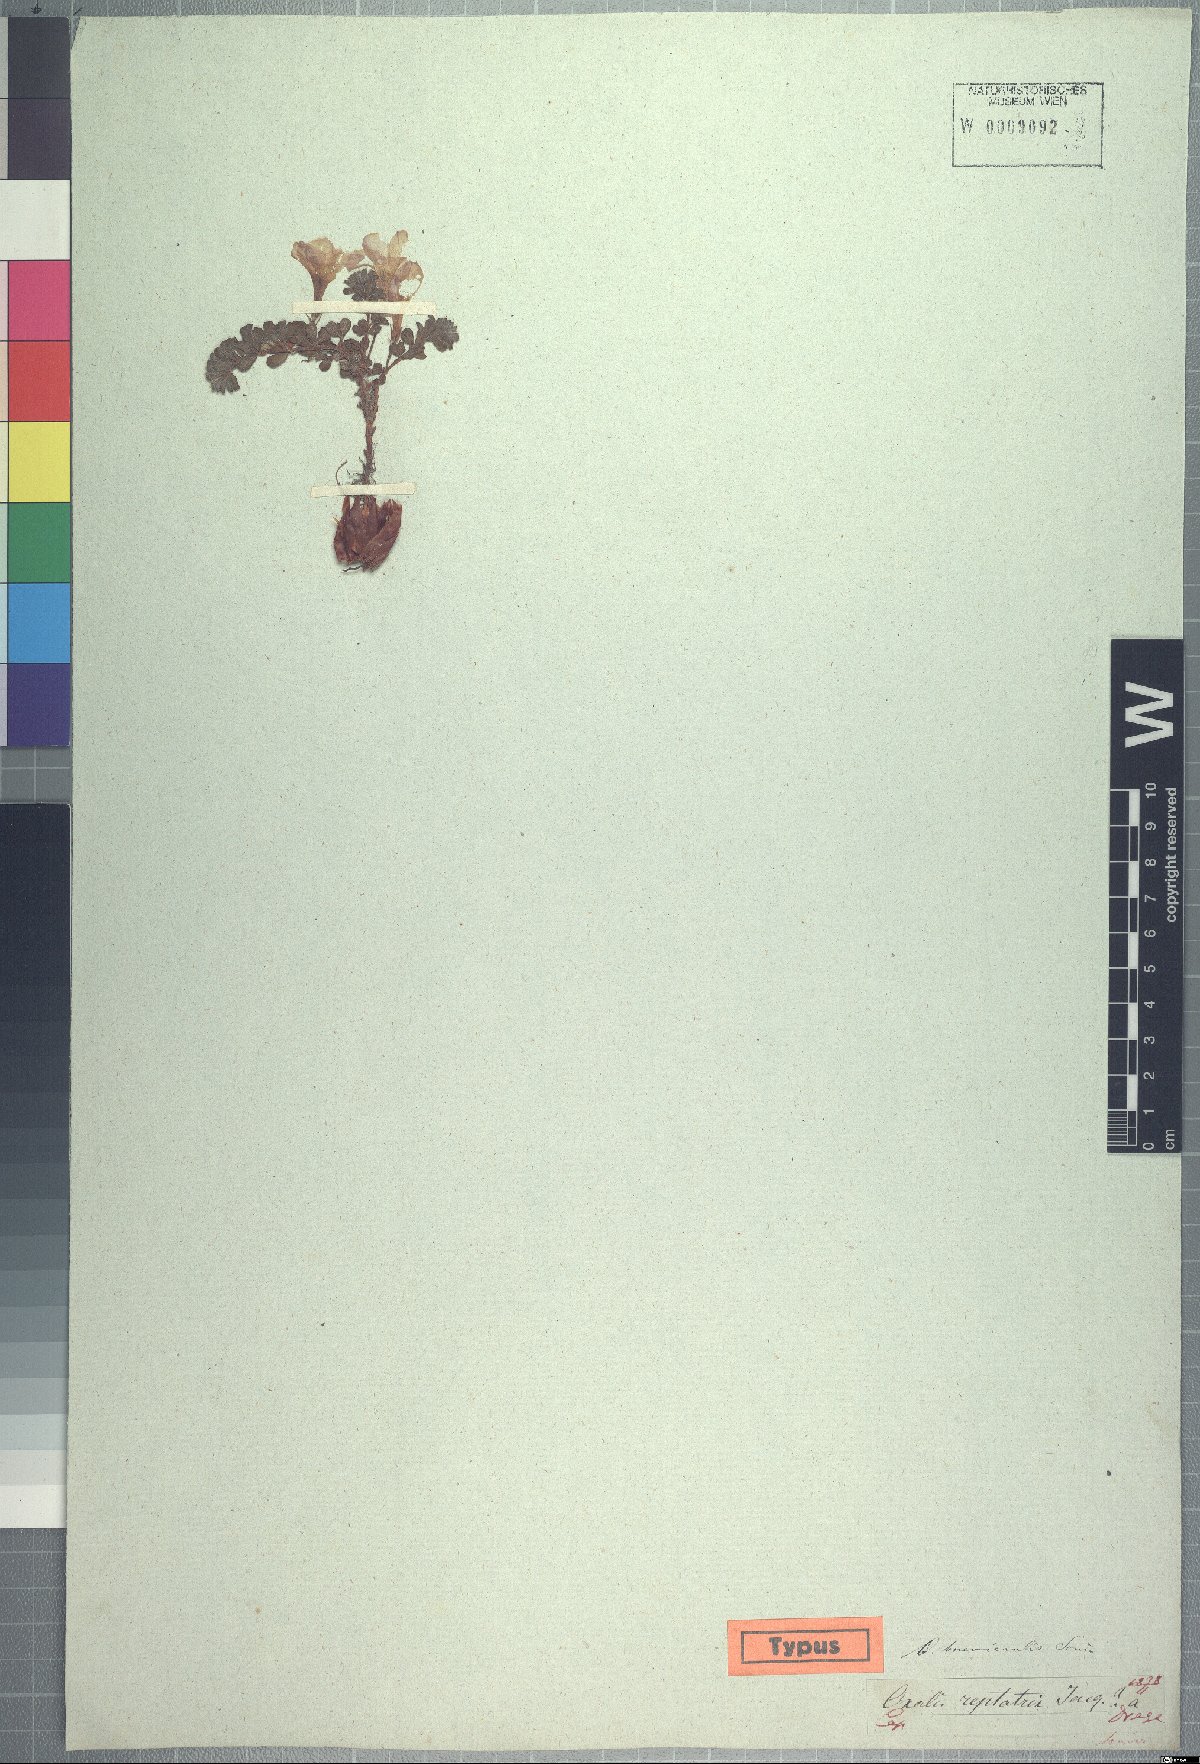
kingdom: Plantae
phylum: Tracheophyta
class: Magnoliopsida
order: Oxalidales
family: Oxalidaceae
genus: Oxalis
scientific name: Oxalis hirta
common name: Tropical woodsorrel
